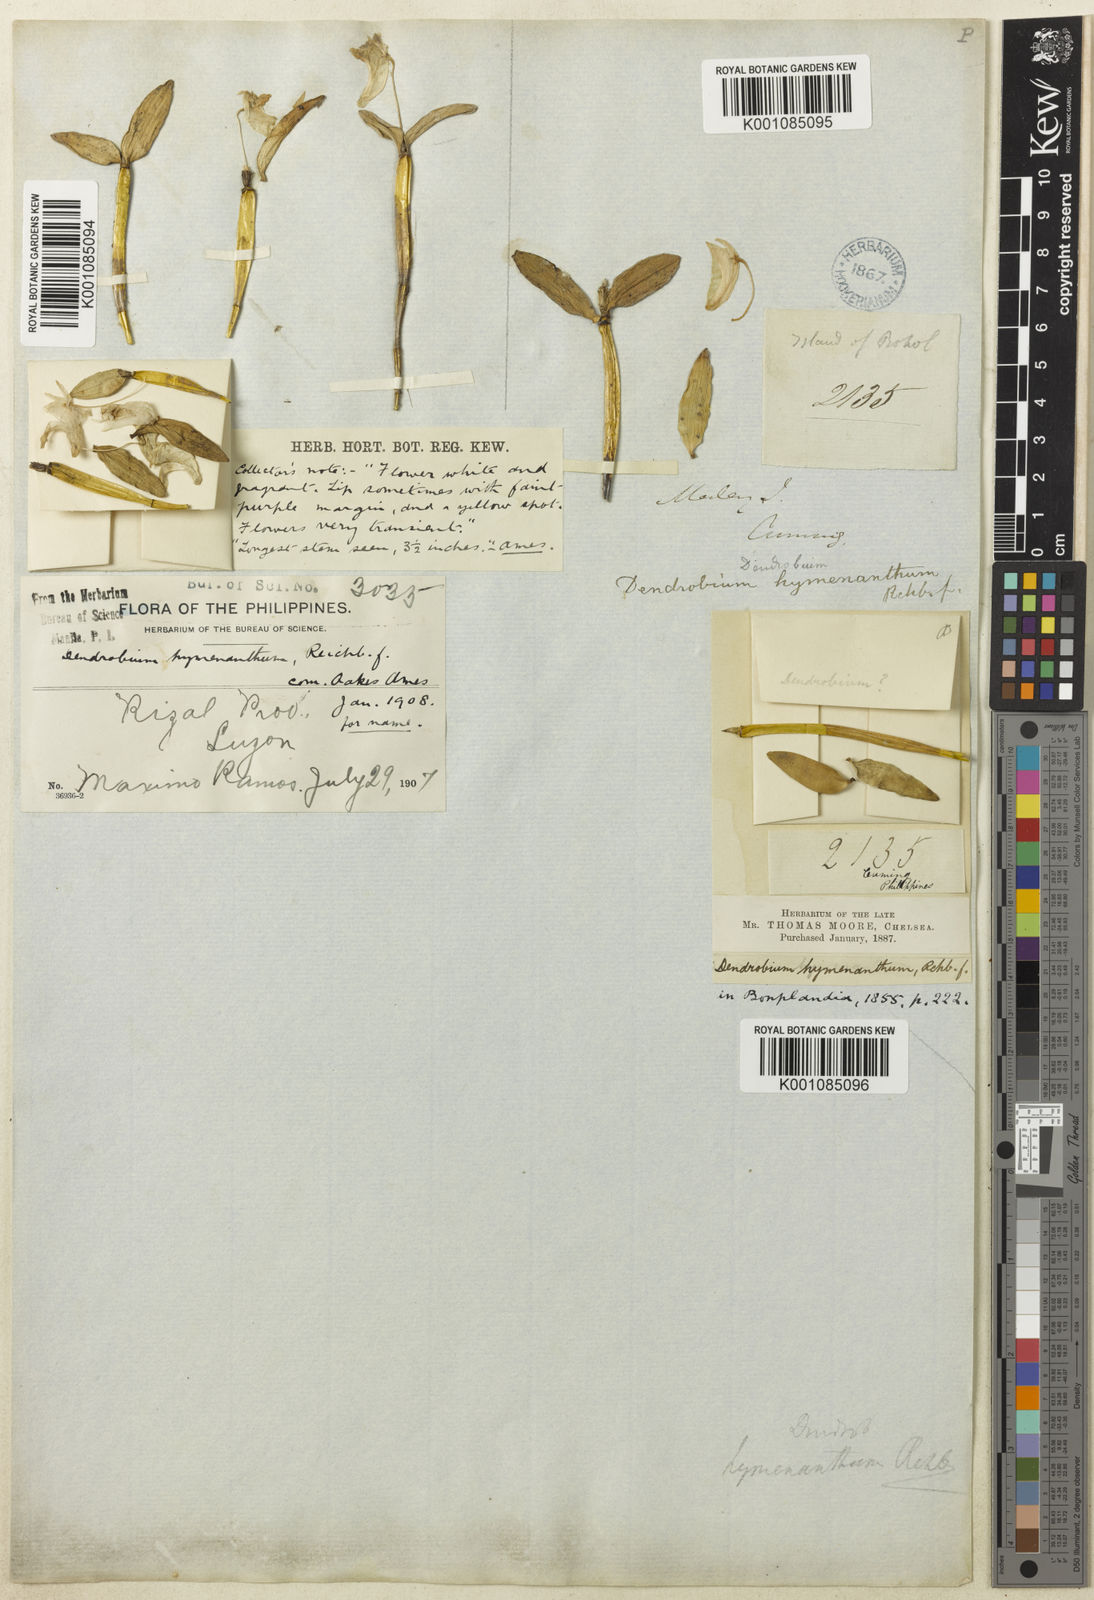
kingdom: Plantae
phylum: Tracheophyta
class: Liliopsida
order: Asparagales
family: Orchidaceae
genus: Dendrobium
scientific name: Dendrobium hymenanthum
